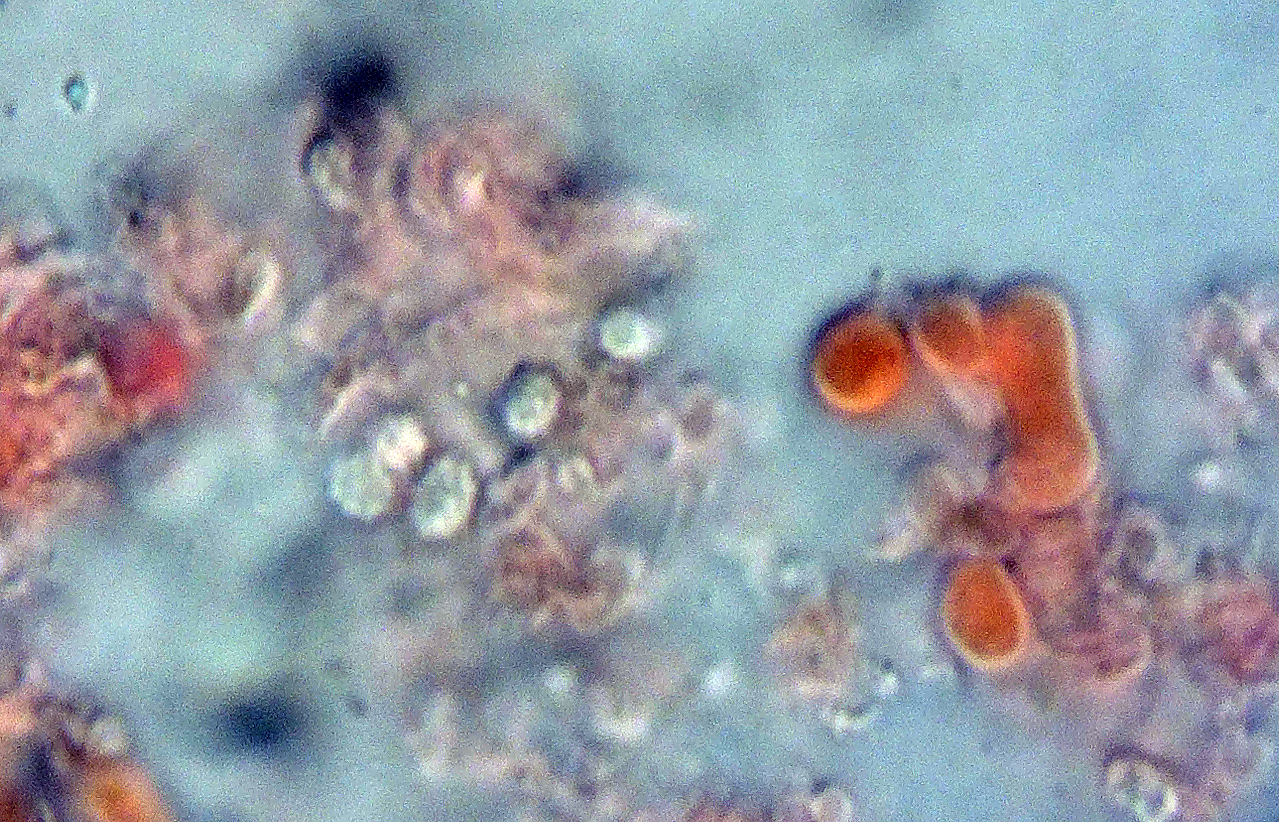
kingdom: Fungi
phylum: Basidiomycota
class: Agaricomycetes
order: Trechisporales
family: Sistotremataceae
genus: Trechispora
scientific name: Trechispora
